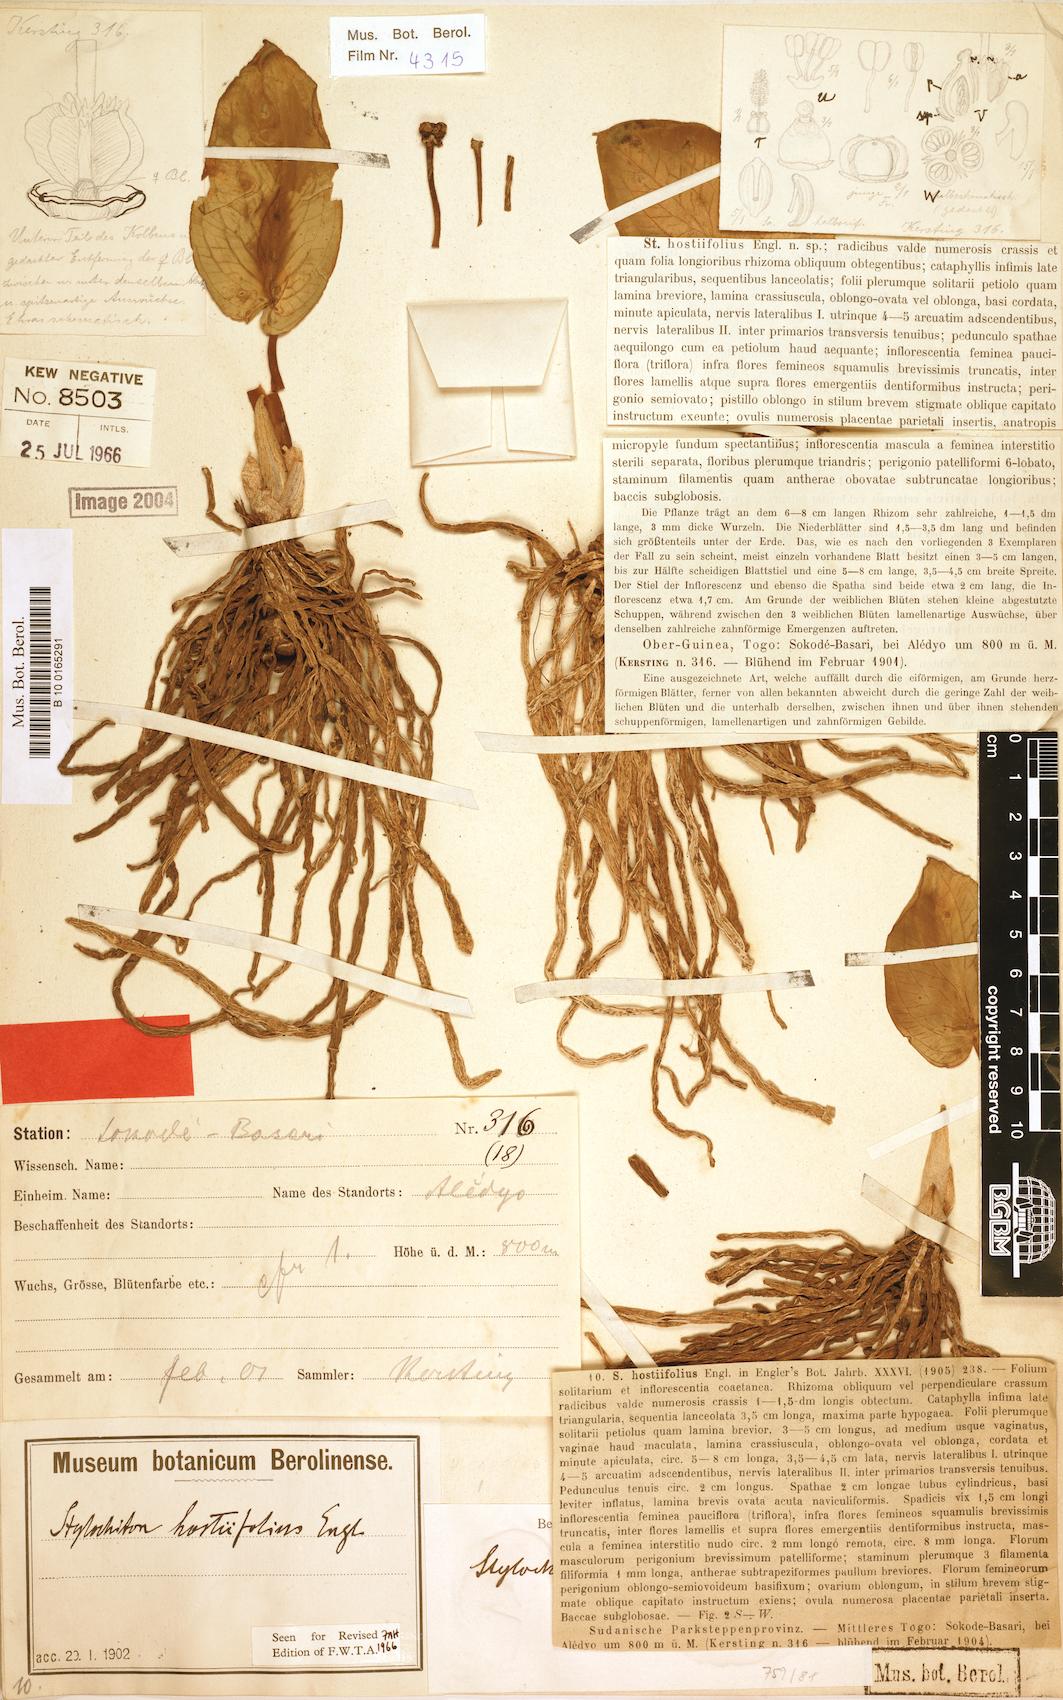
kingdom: Plantae
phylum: Tracheophyta
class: Liliopsida
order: Alismatales
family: Araceae
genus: Stylochiton
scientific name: Stylochiton hostiifolius
